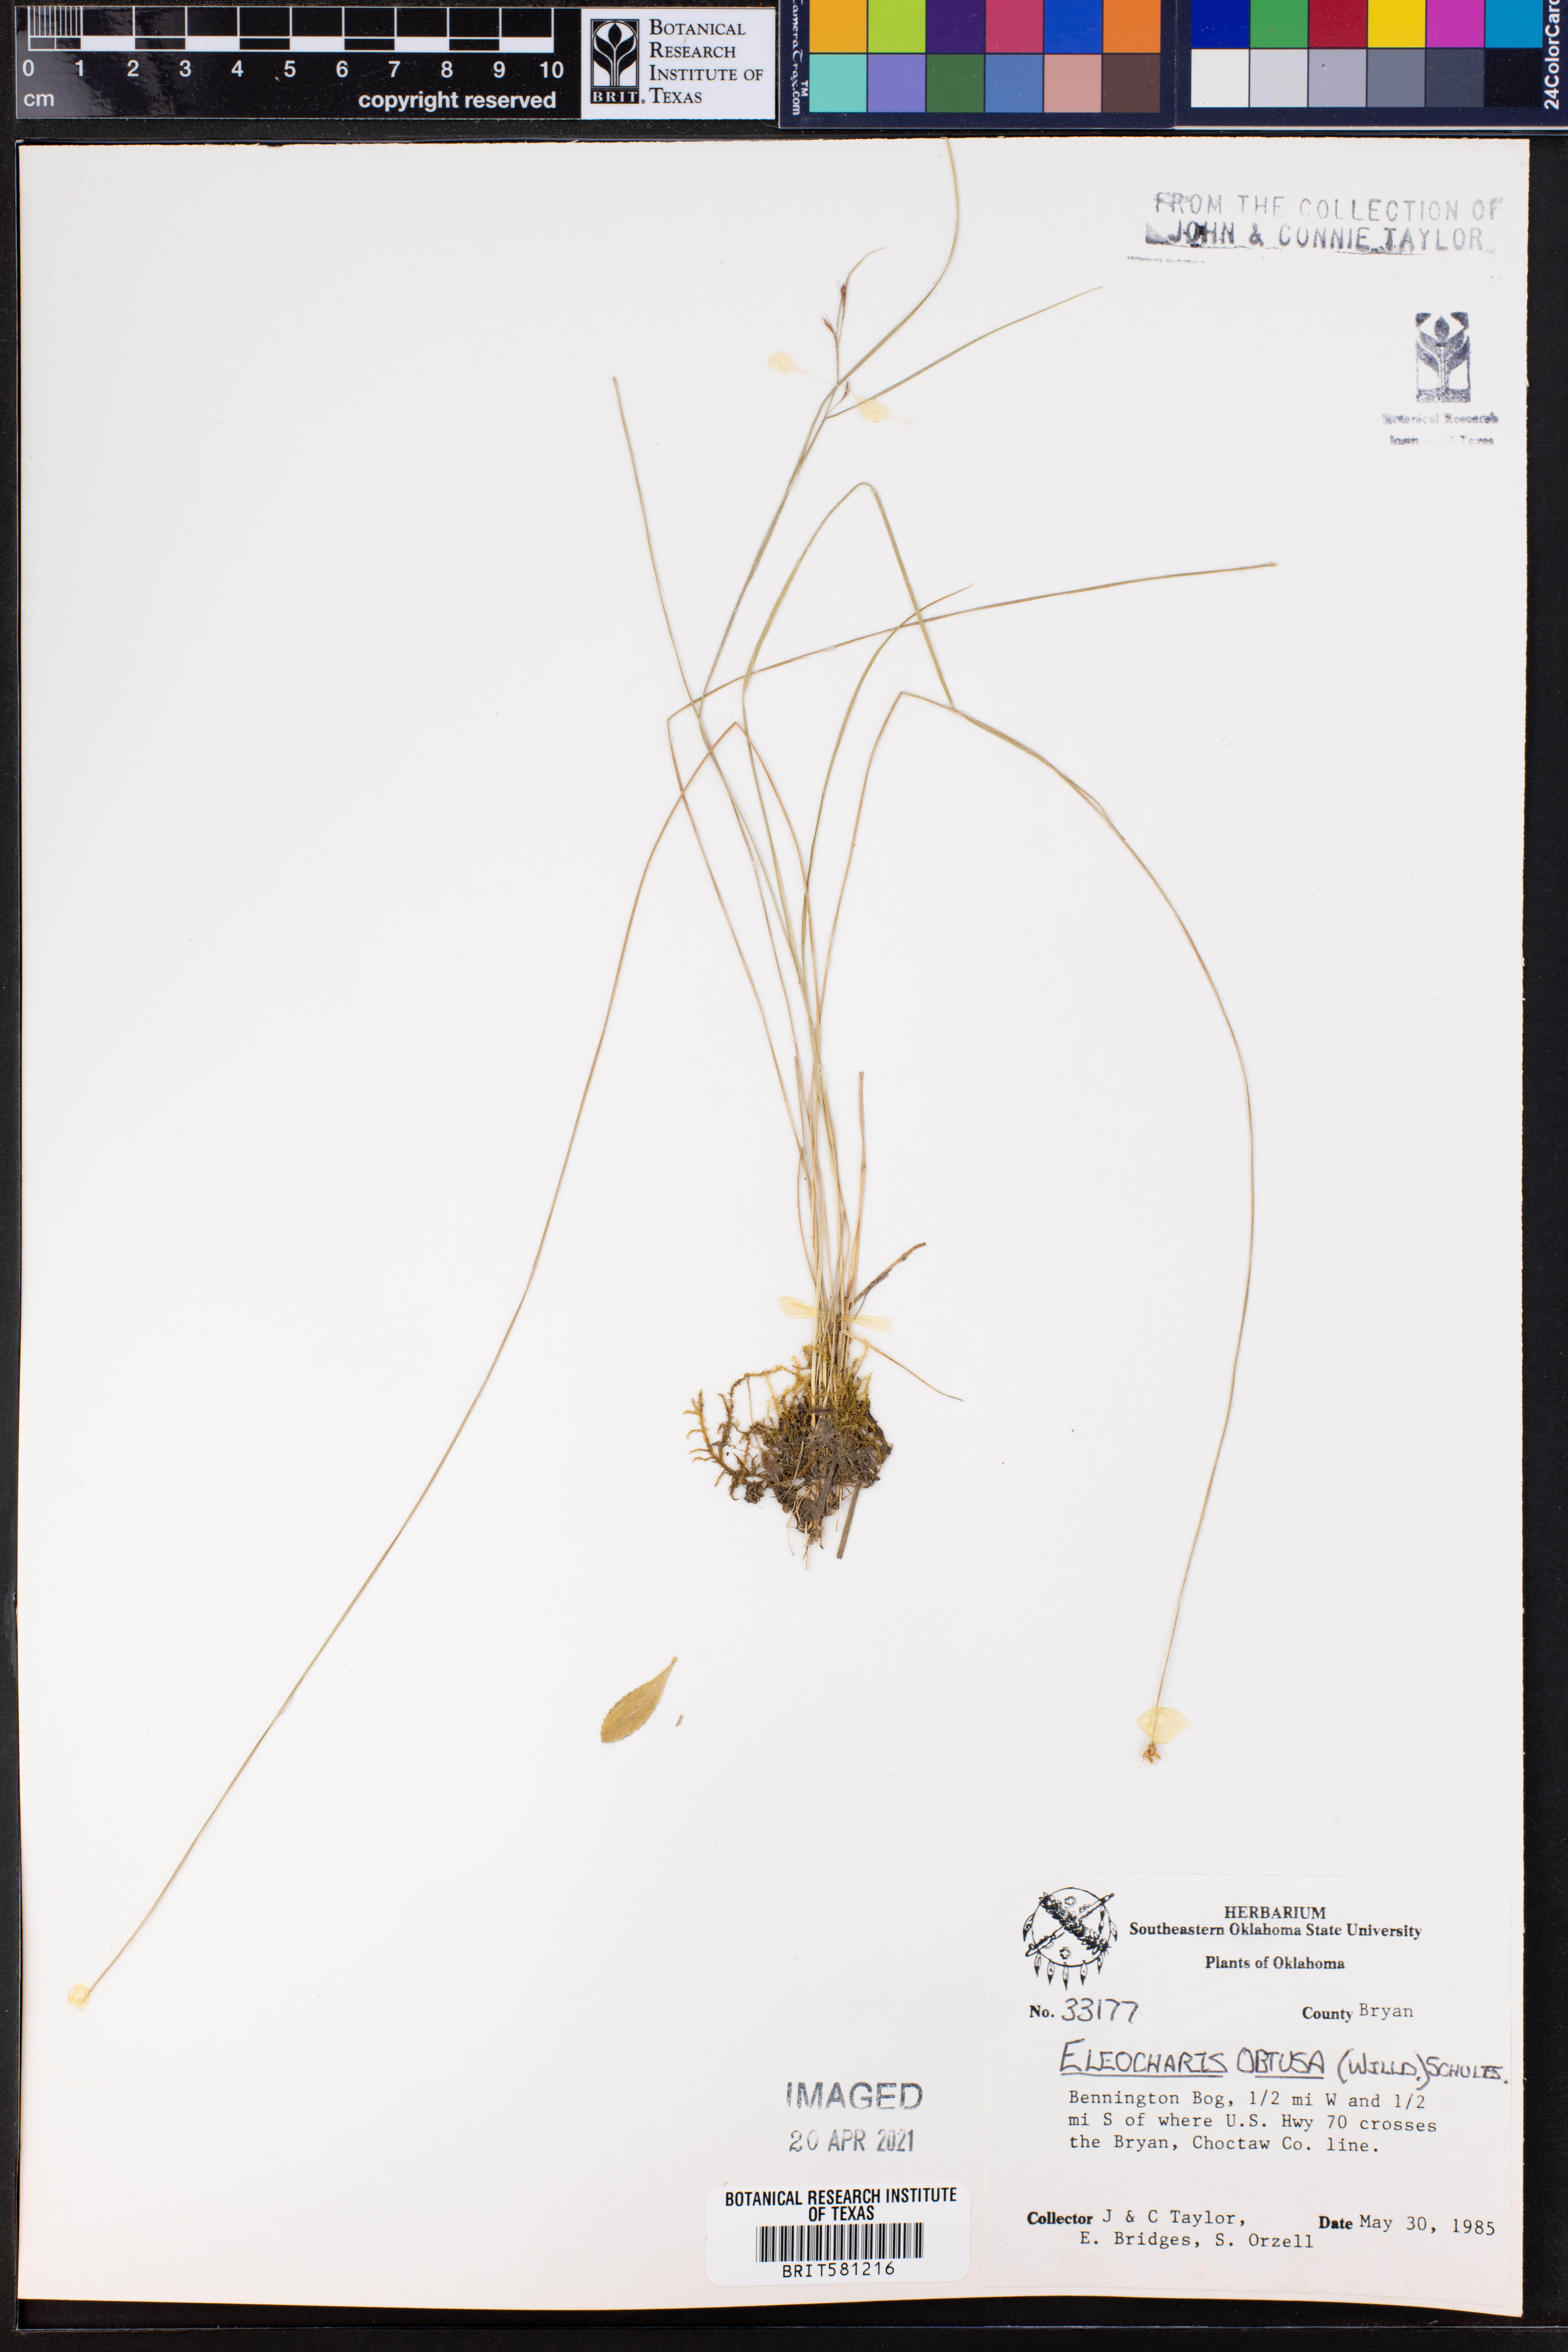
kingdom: Plantae
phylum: Tracheophyta
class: Liliopsida
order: Poales
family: Cyperaceae
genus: Eleocharis
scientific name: Eleocharis obtusa
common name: Blunt spikerush
